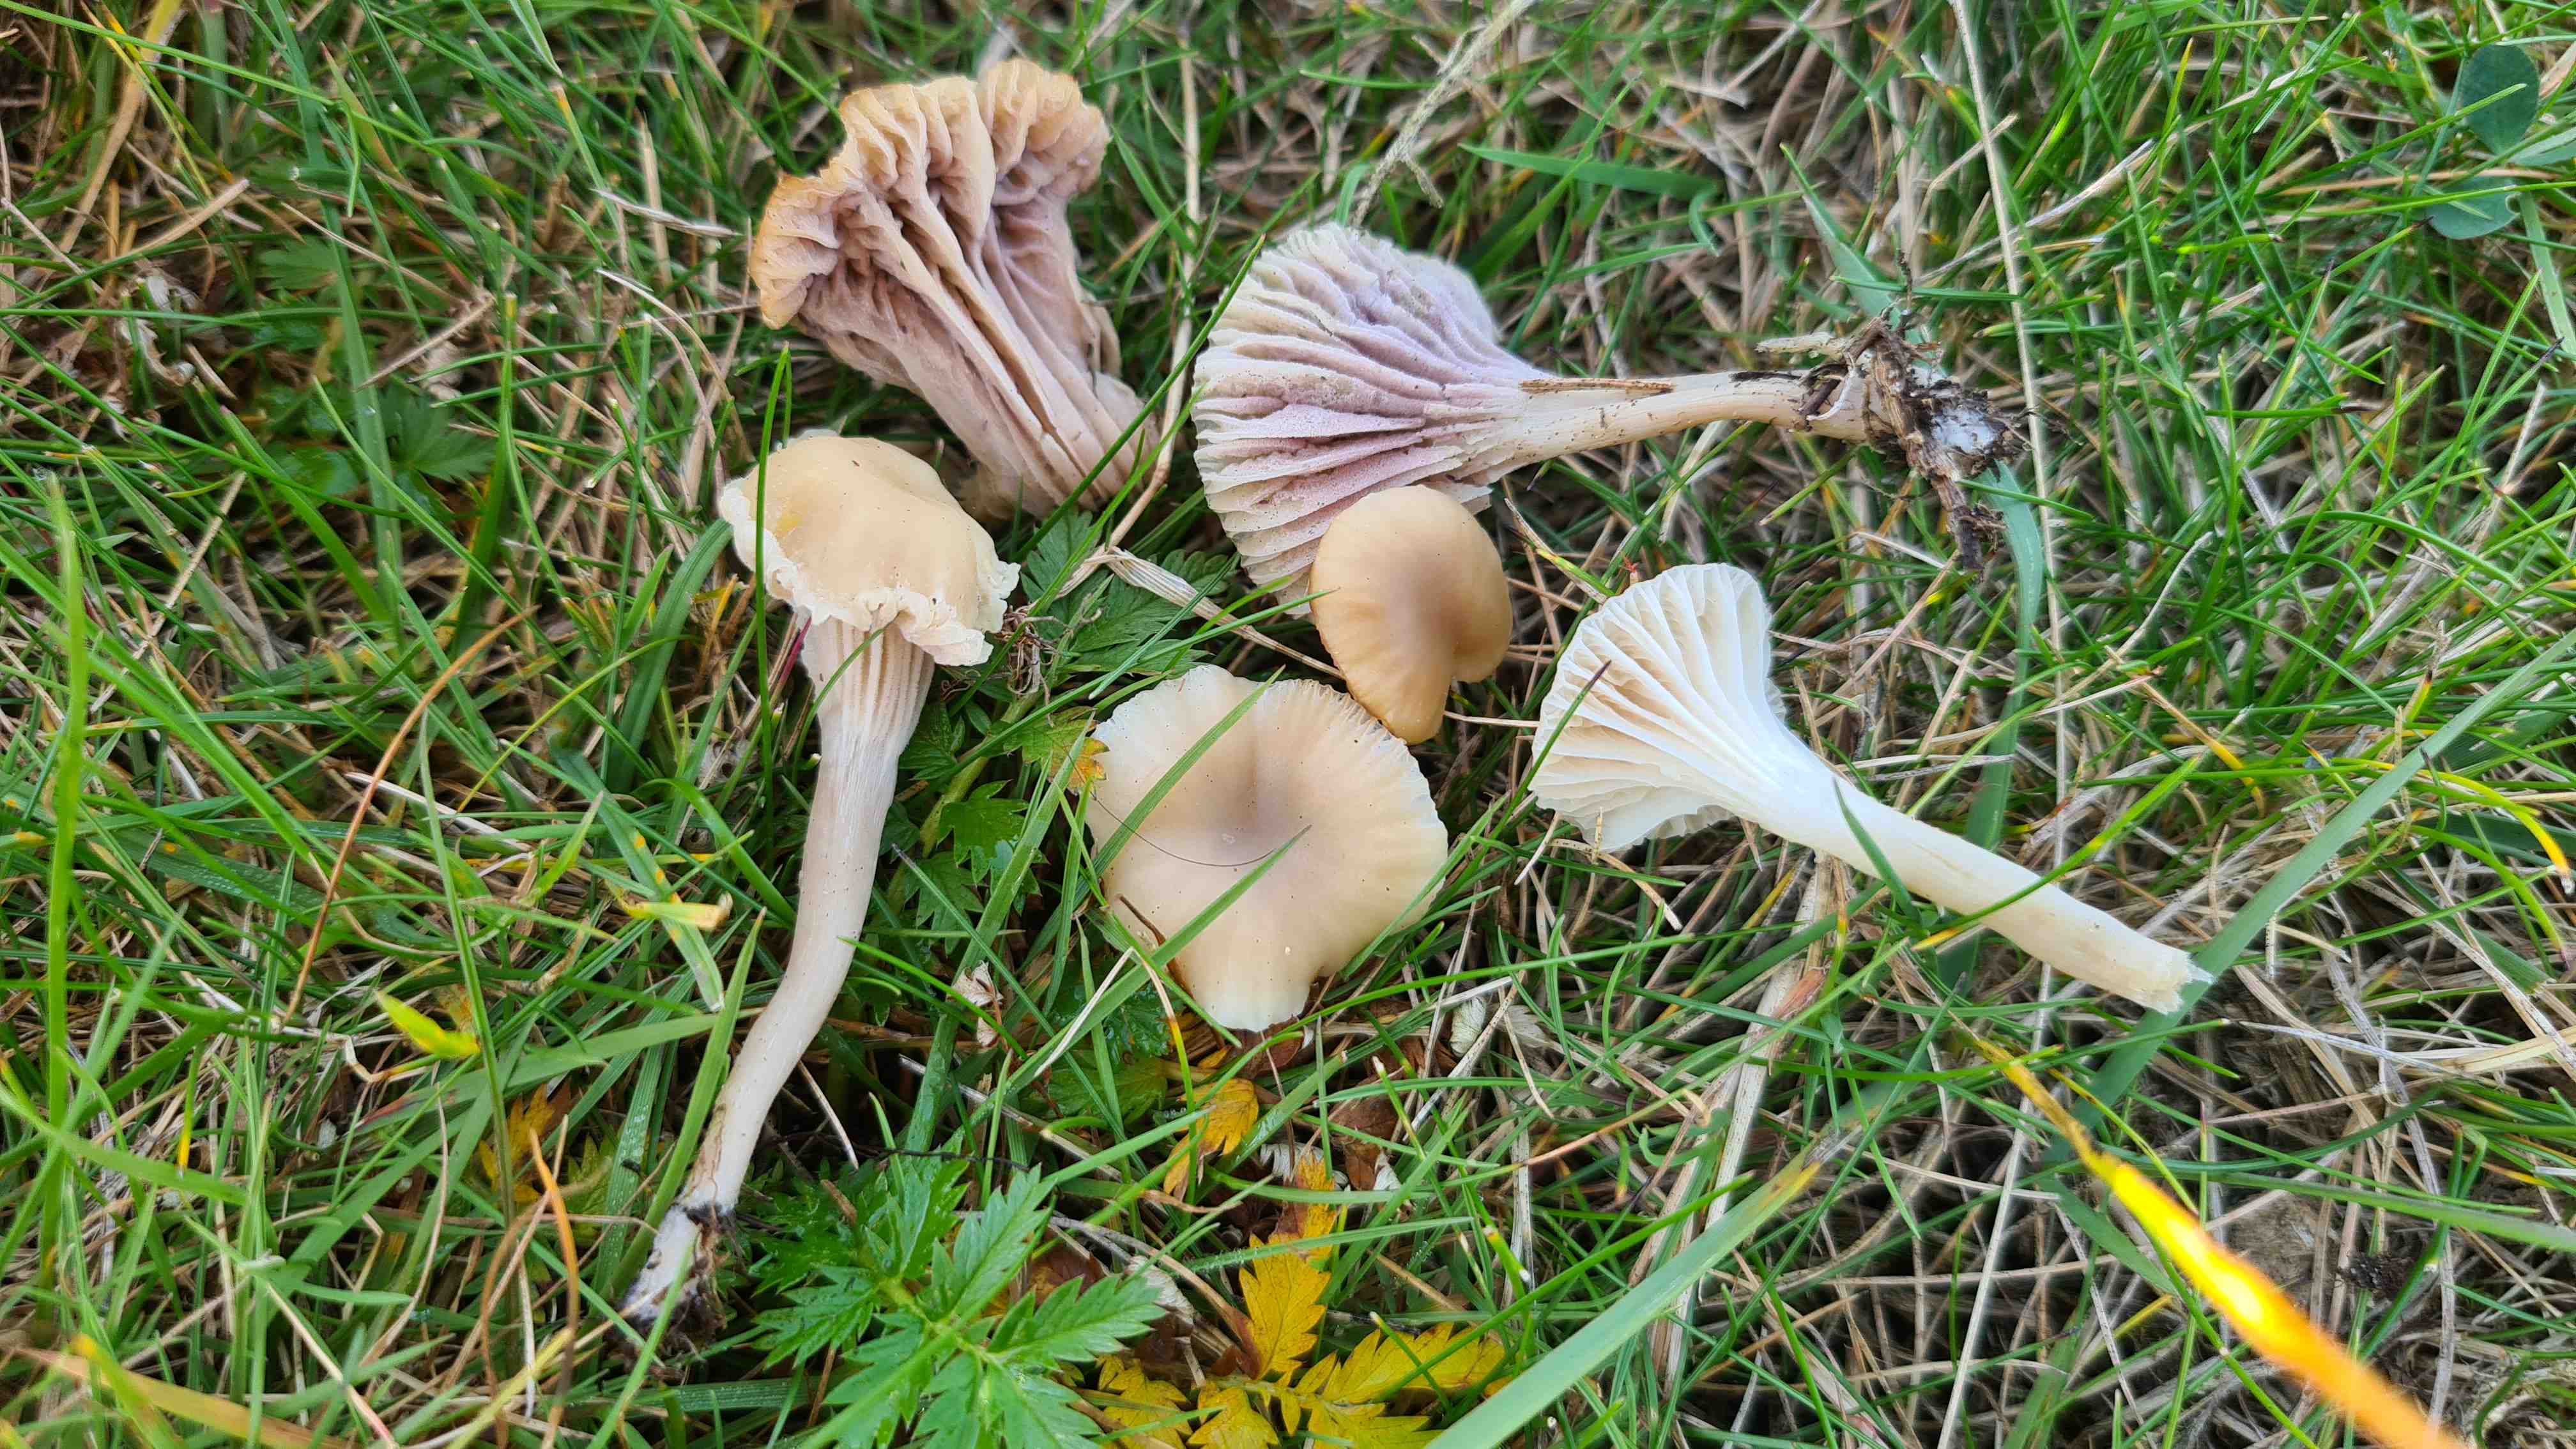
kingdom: Fungi
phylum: Basidiomycota
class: Agaricomycetes
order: Agaricales
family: Hygrophoraceae
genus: Cuphophyllus
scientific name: Cuphophyllus virgineus
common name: isabella-vokshat
